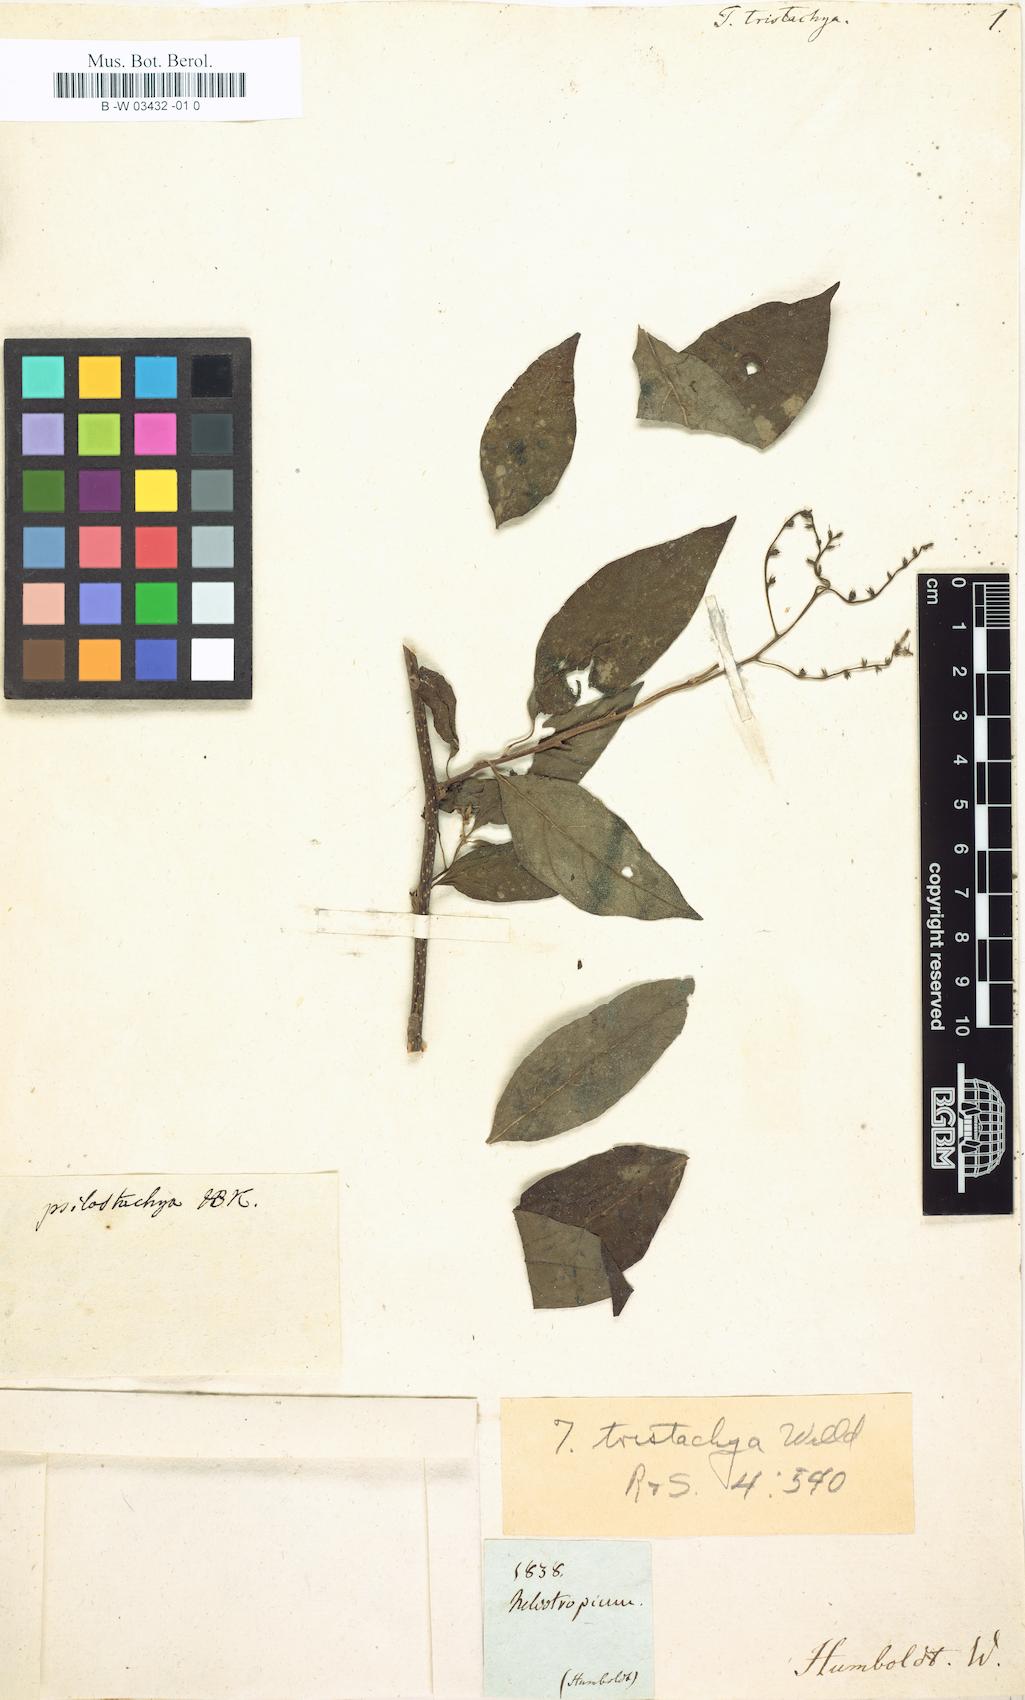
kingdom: Plantae
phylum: Tracheophyta
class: Magnoliopsida
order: Boraginales
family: Heliotropiaceae
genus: Myriopus
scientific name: Myriopus psilostachya
